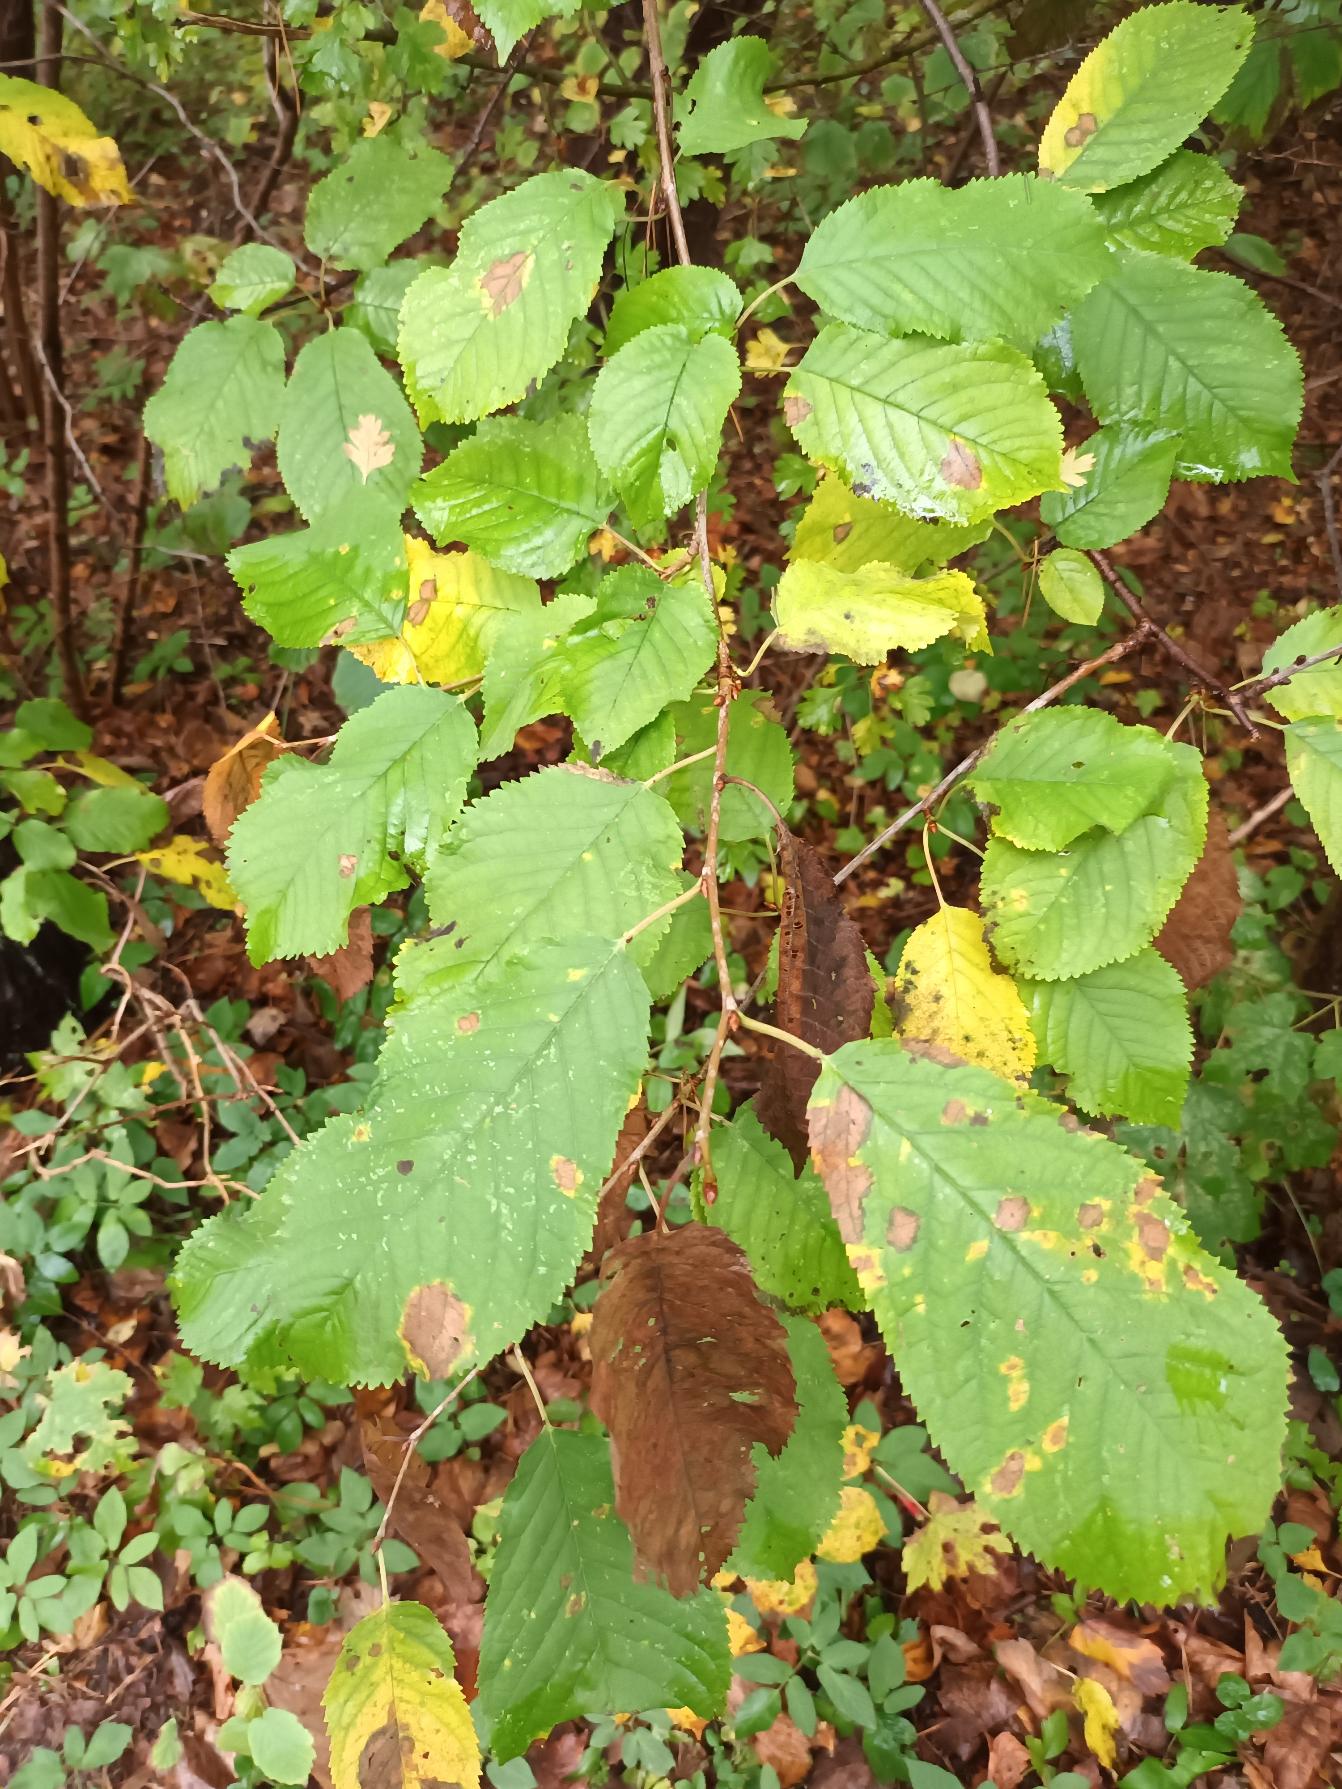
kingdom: Plantae
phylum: Tracheophyta
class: Magnoliopsida
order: Rosales
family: Rosaceae
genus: Prunus
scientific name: Prunus avium
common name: Fugle-kirsebær
